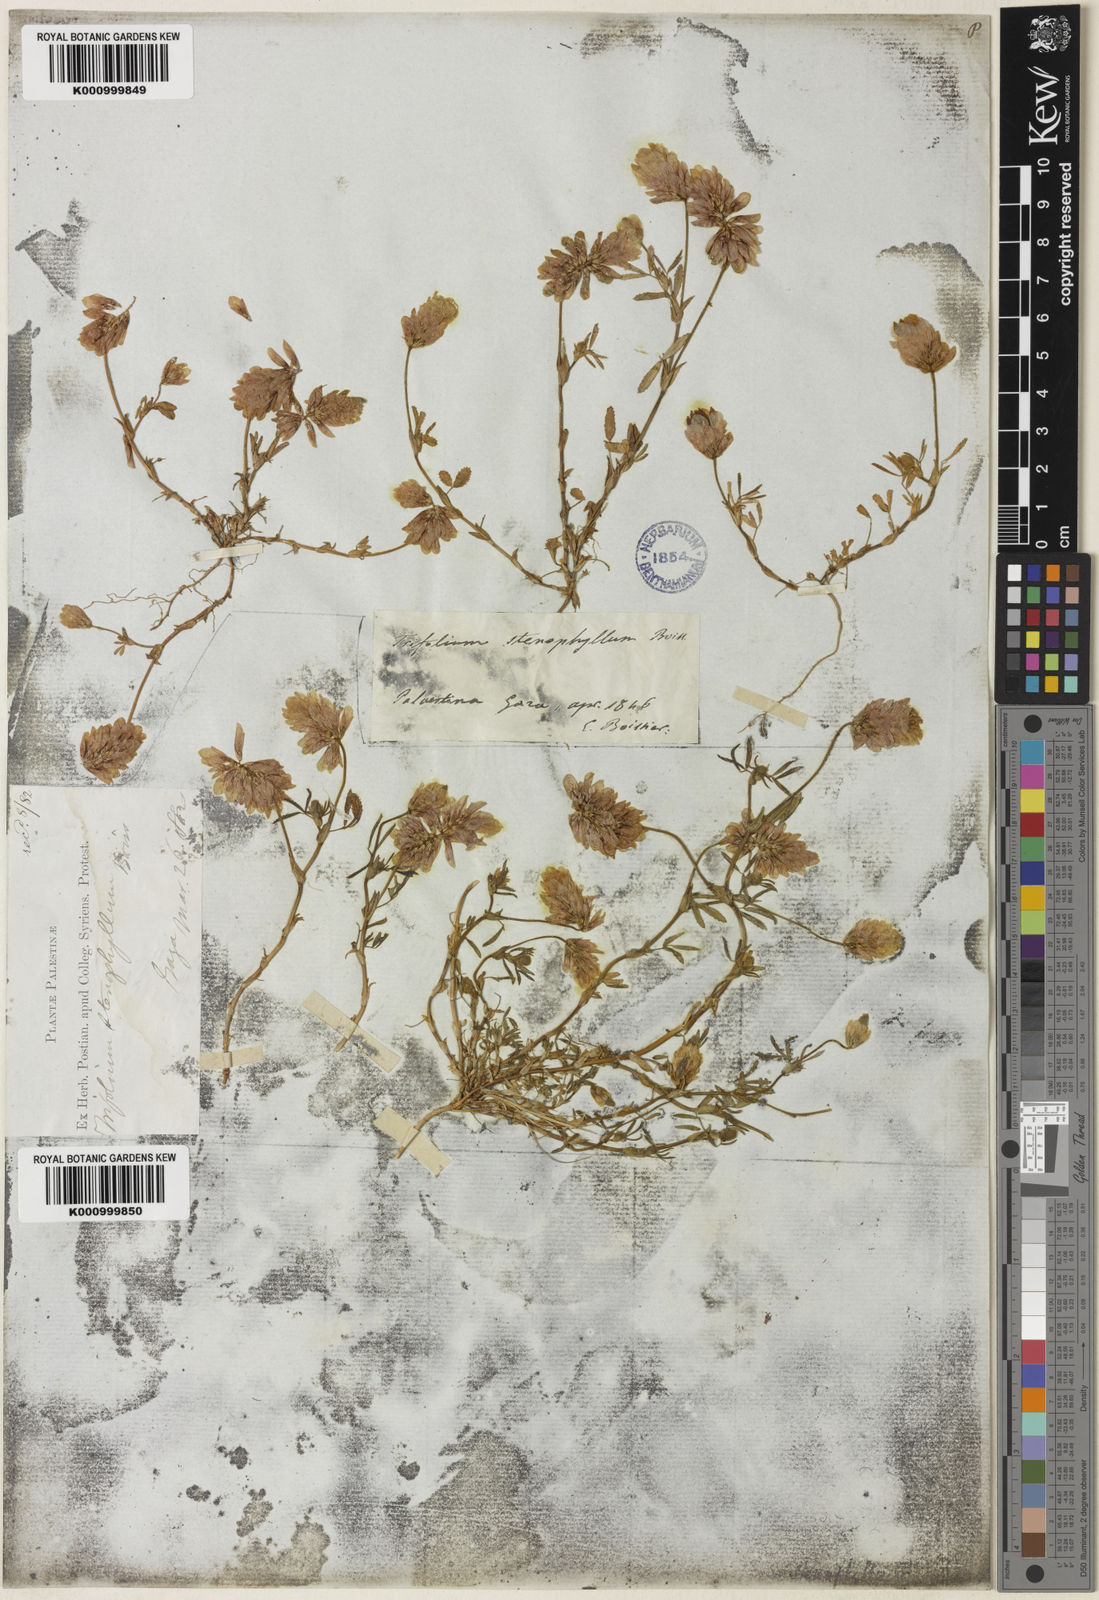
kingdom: Plantae
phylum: Tracheophyta
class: Magnoliopsida
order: Fabales
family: Fabaceae
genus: Trifolium
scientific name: Trifolium philistaeum
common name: Palestine clover
